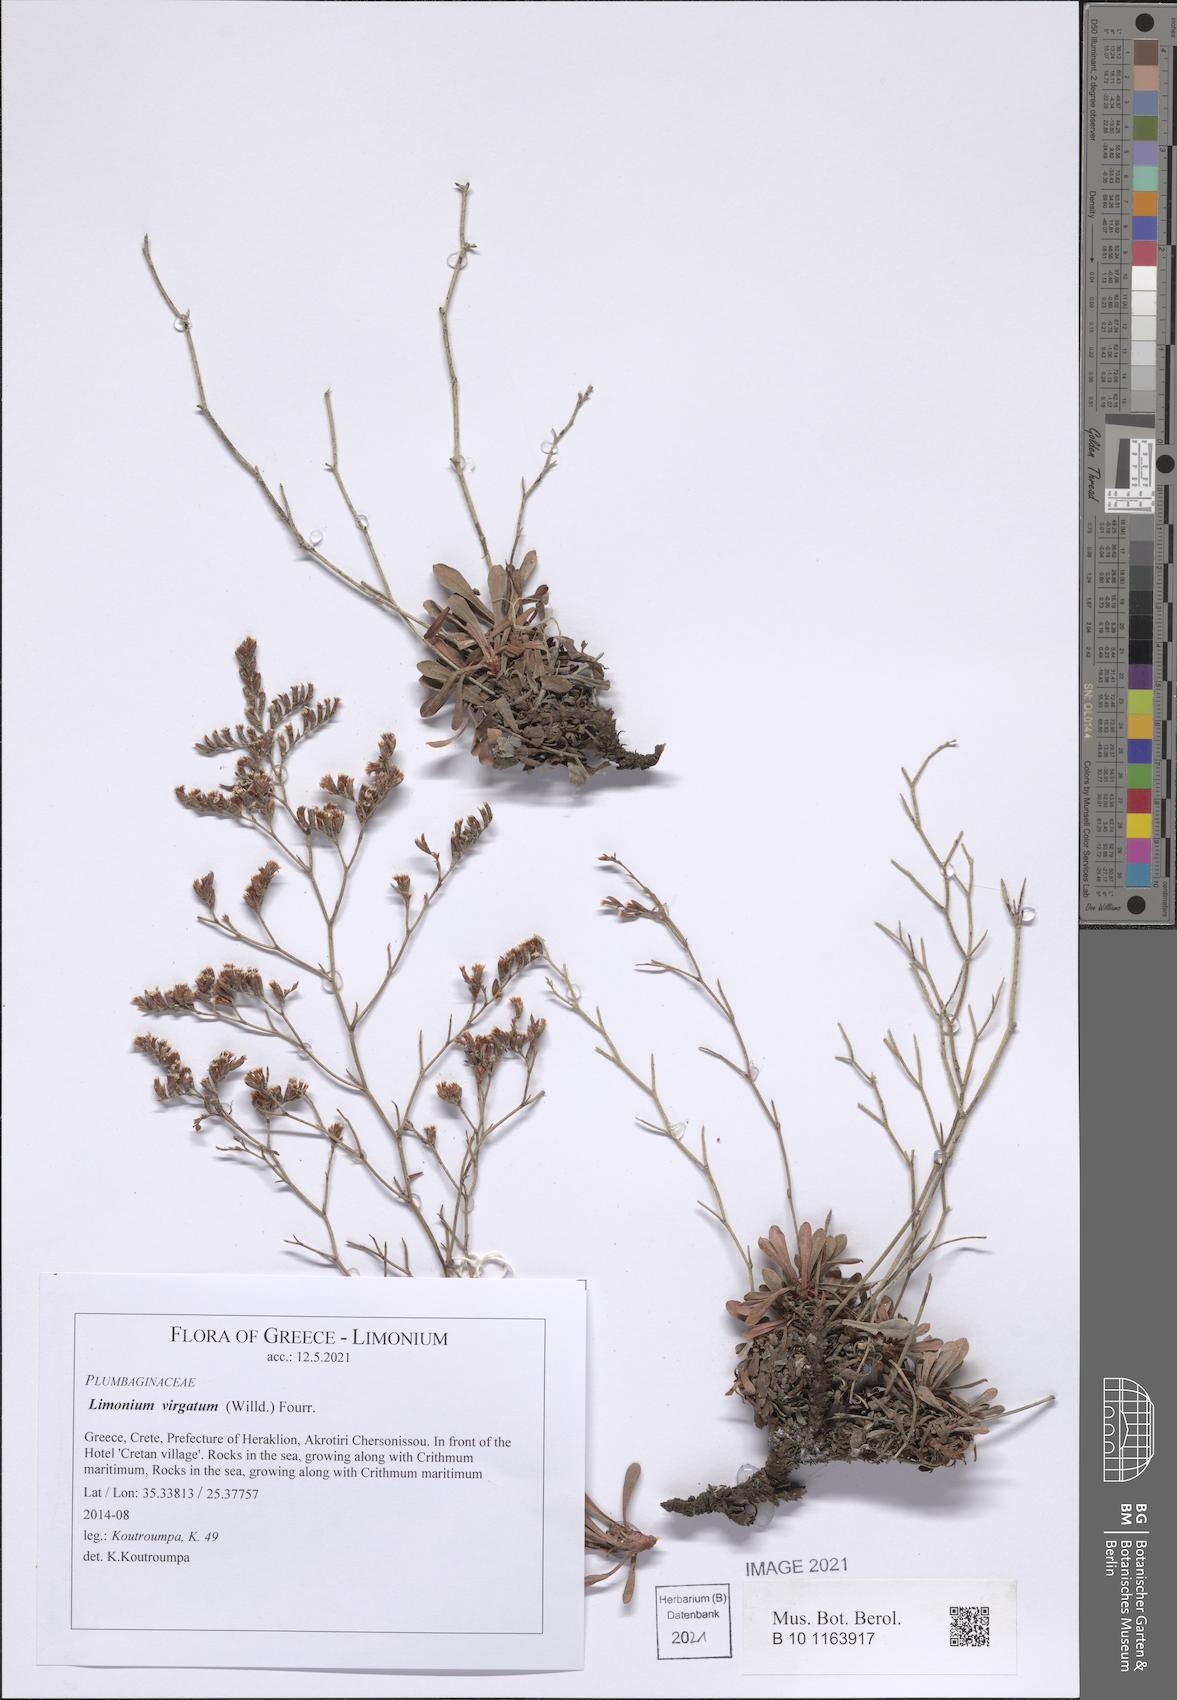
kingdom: Plantae
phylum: Tracheophyta
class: Magnoliopsida
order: Caryophyllales
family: Plumbaginaceae
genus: Limonium
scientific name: Limonium virgatum
